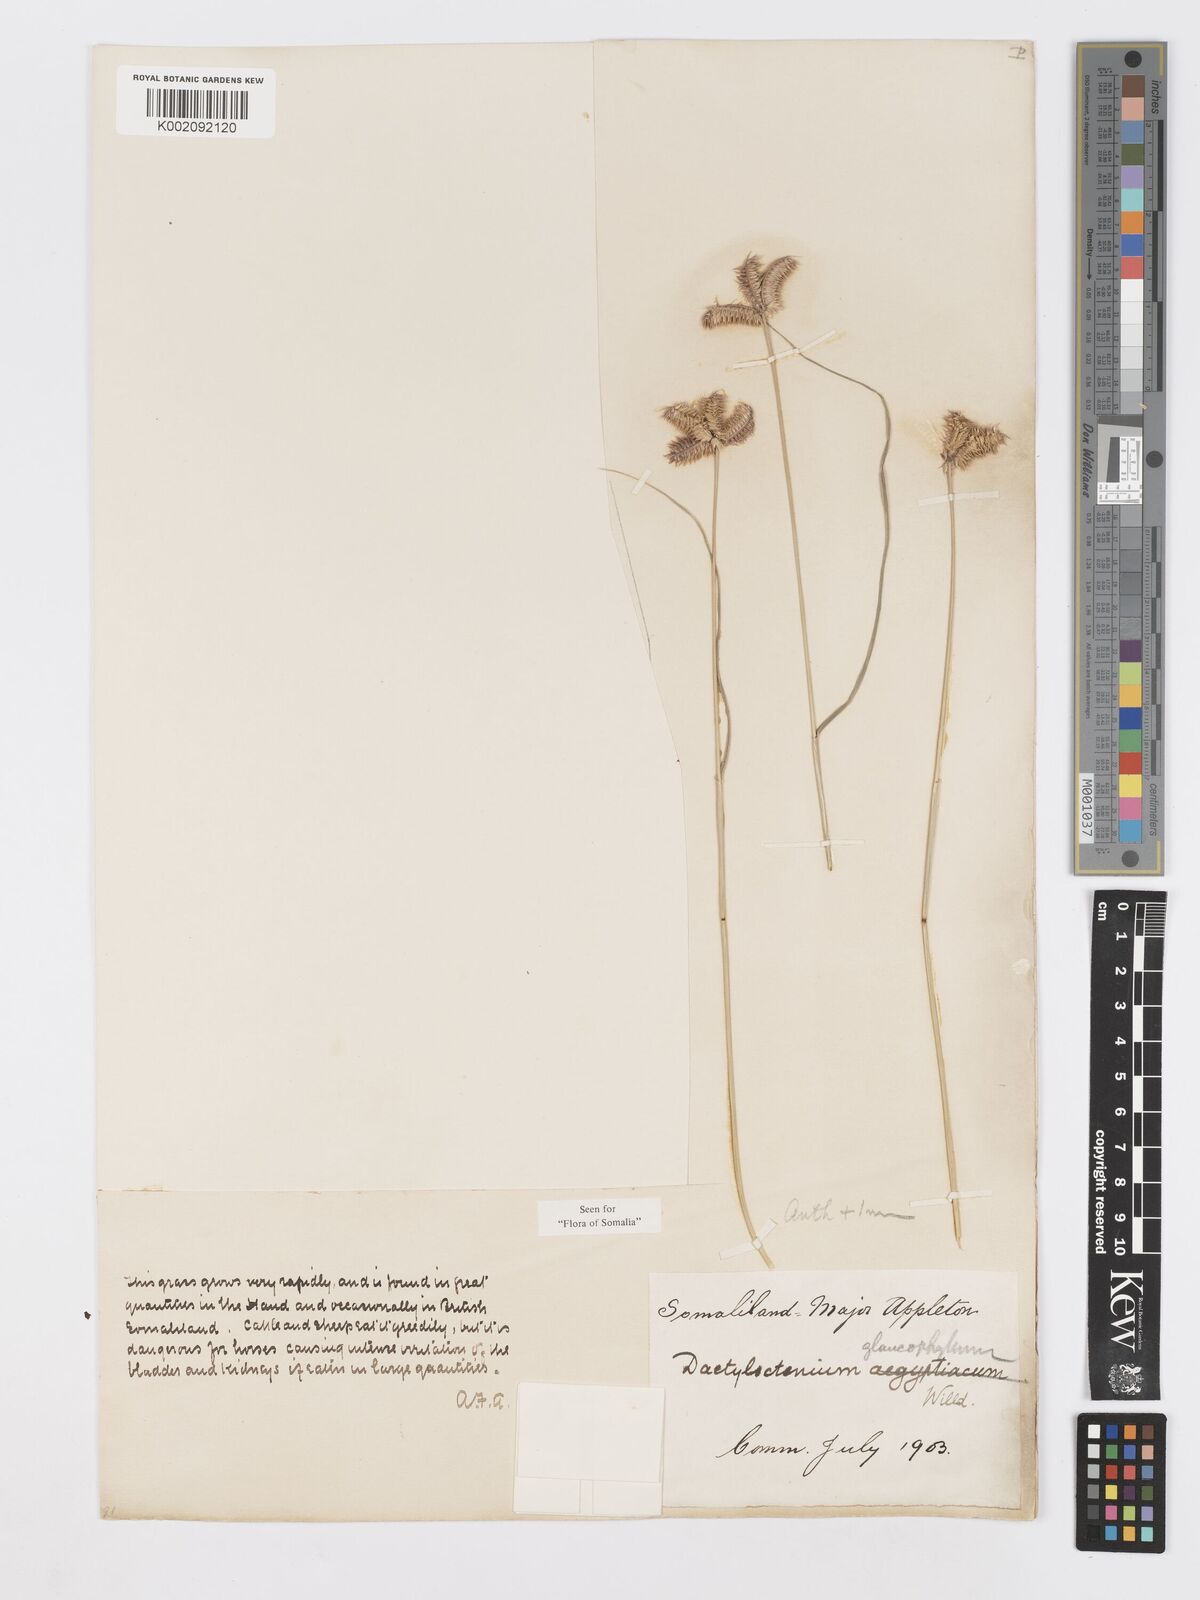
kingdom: Plantae
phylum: Tracheophyta
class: Liliopsida
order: Poales
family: Poaceae
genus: Dactyloctenium
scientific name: Dactyloctenium scindicum
